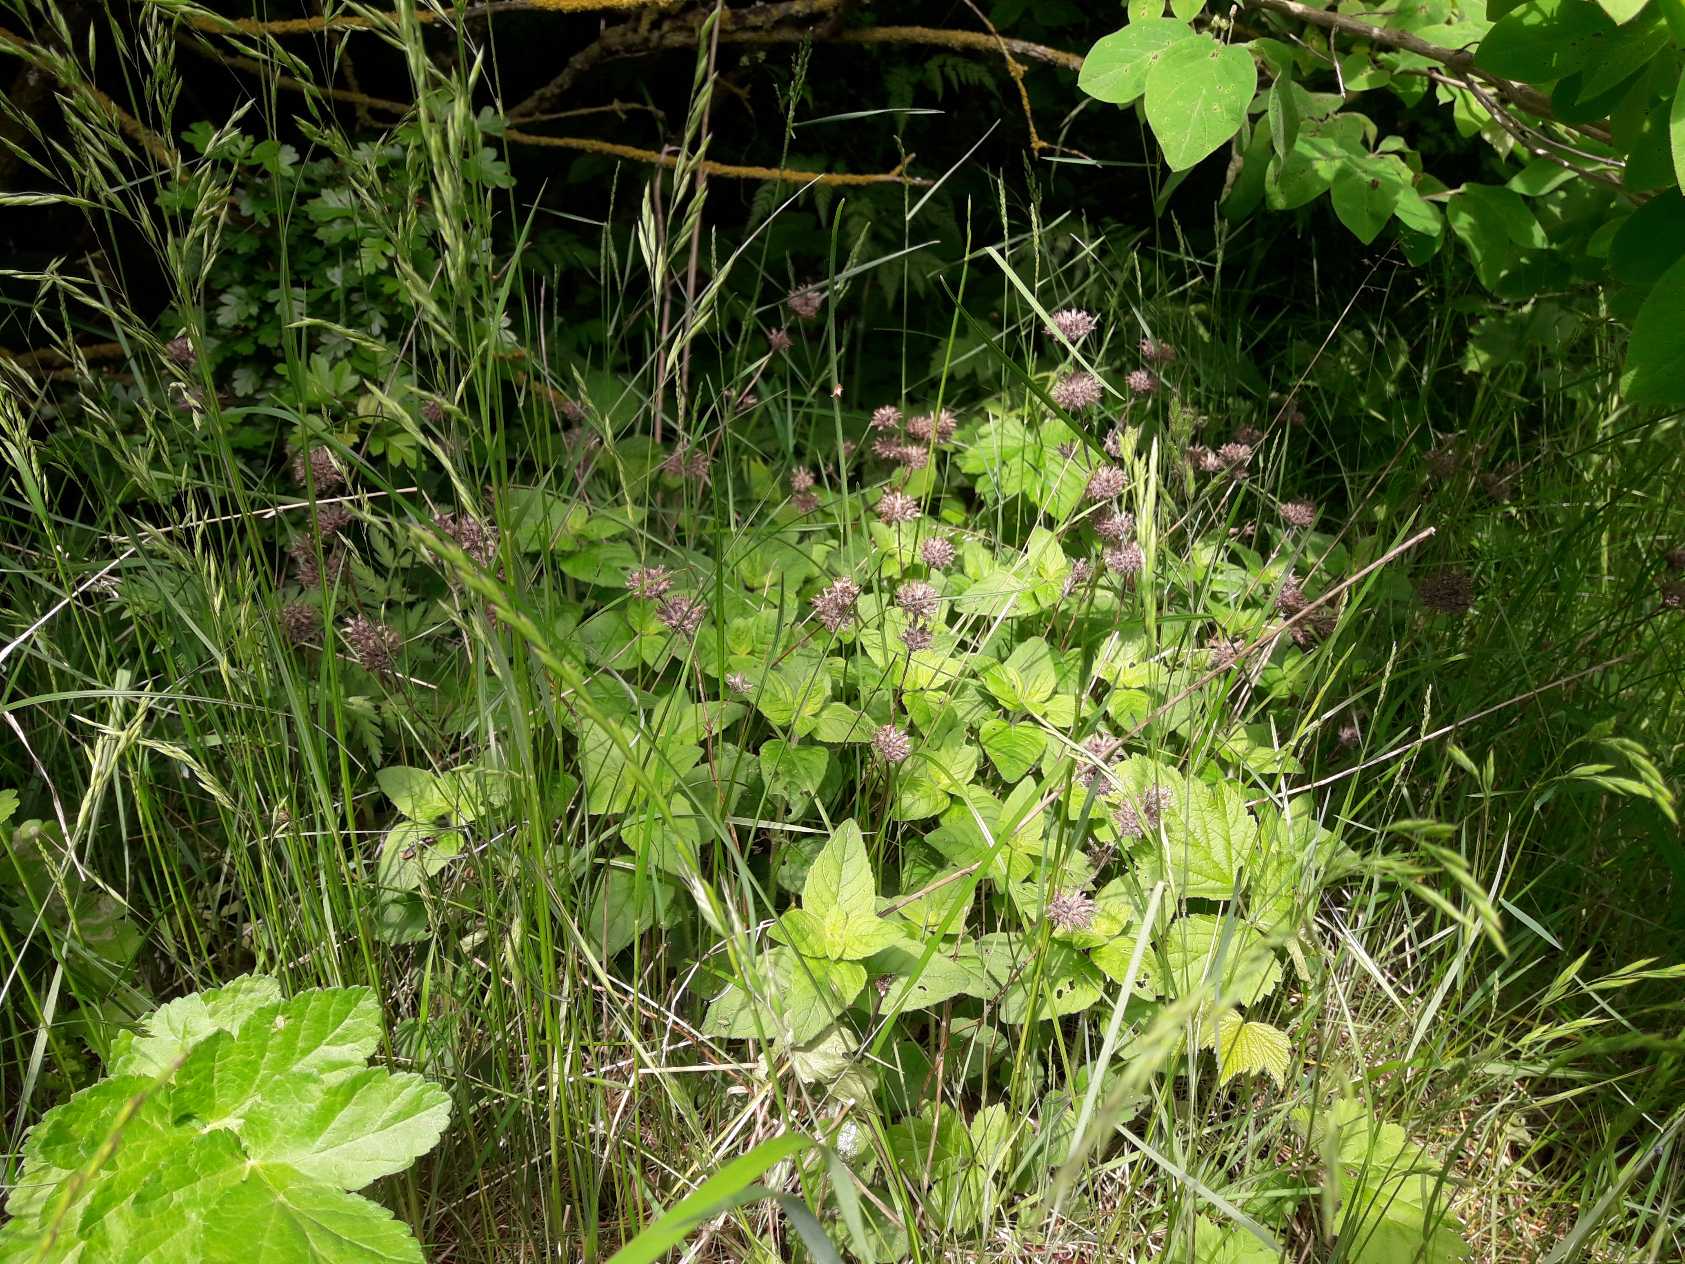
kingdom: Plantae
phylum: Tracheophyta
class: Magnoliopsida
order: Lamiales
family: Lamiaceae
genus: Clinopodium
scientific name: Clinopodium vulgare
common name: Kransbørste
